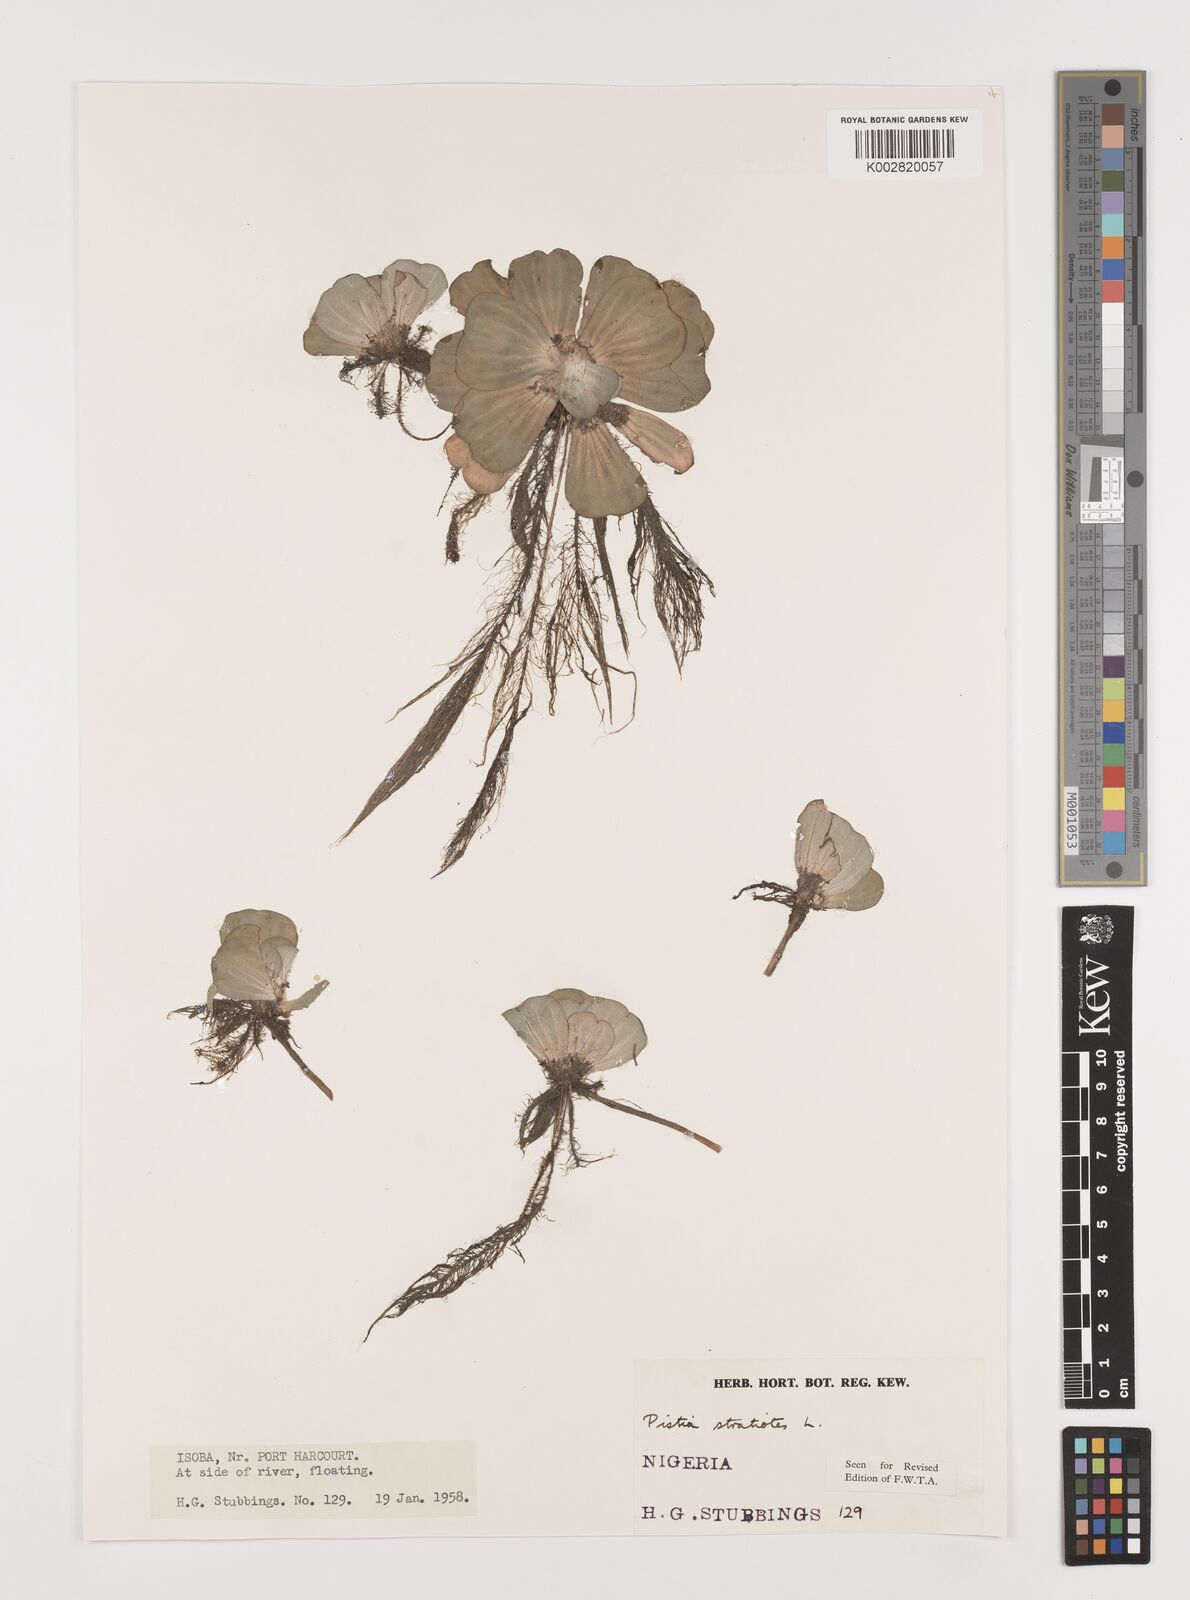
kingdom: Plantae
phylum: Tracheophyta
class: Liliopsida
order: Alismatales
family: Araceae
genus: Pistia
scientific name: Pistia stratiotes
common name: Water lettuce
